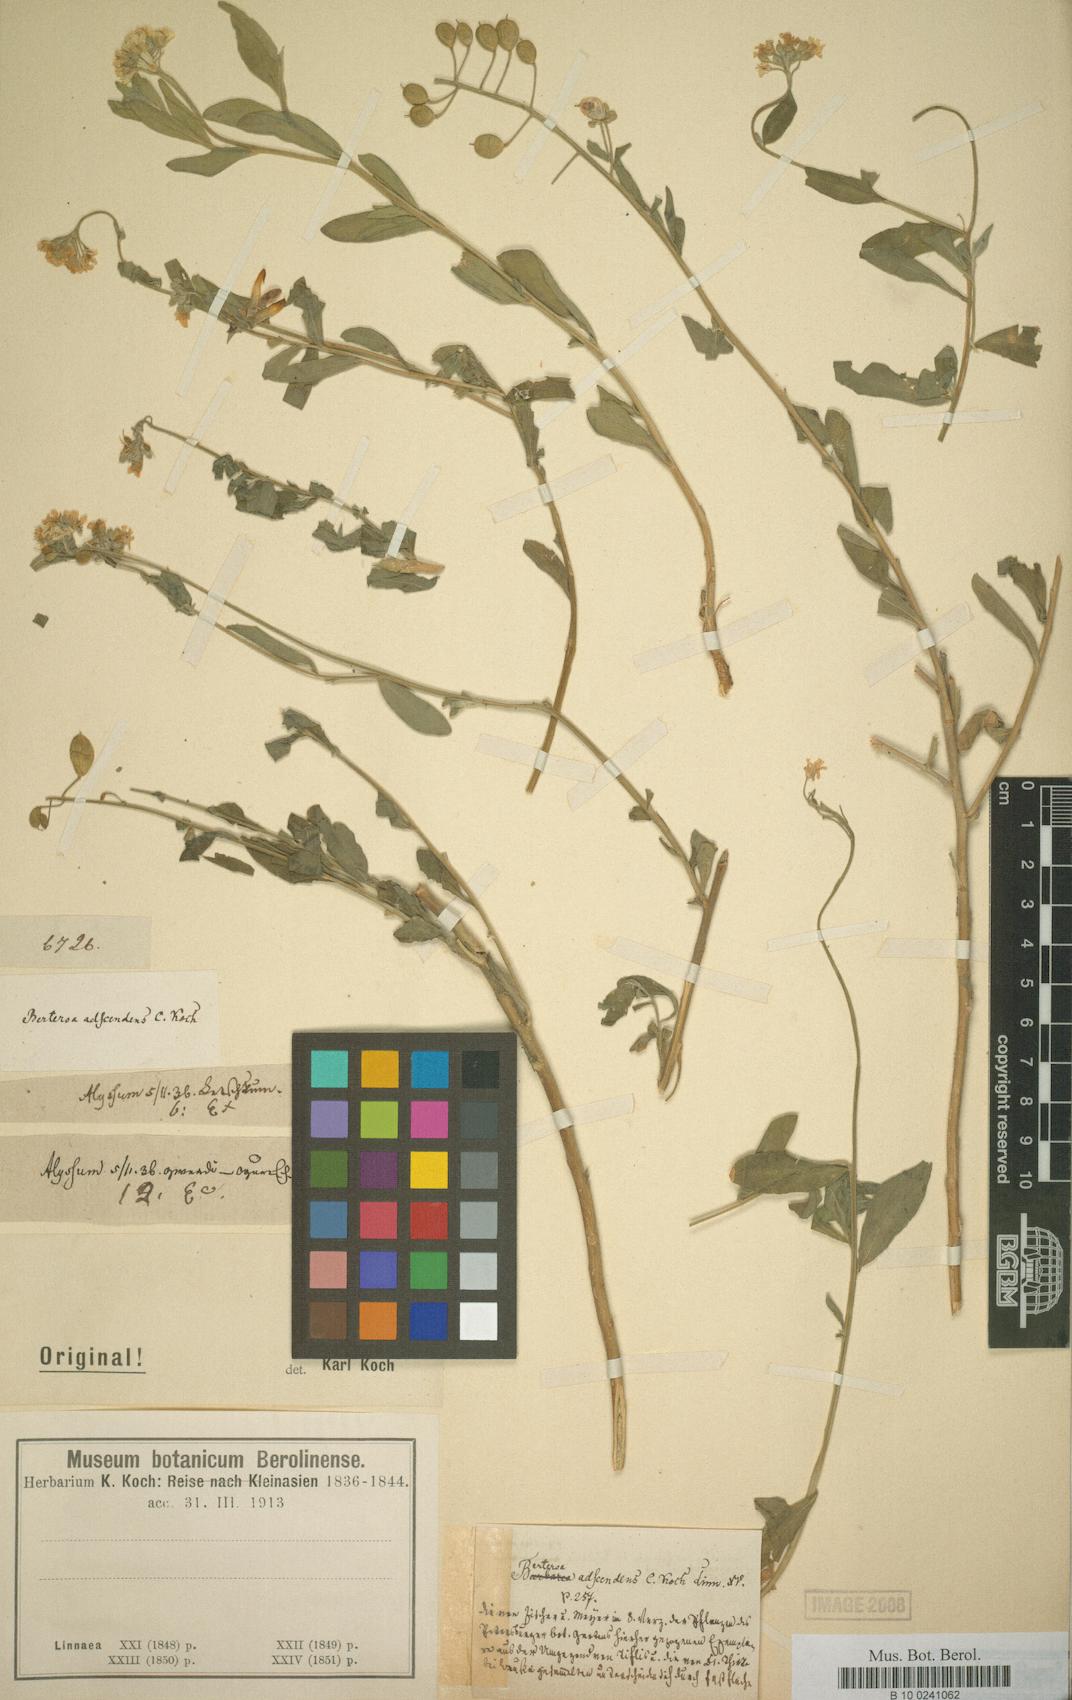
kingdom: Plantae
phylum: Tracheophyta
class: Magnoliopsida
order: Brassicales
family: Brassicaceae
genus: Berteroa
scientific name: Berteroa mutabilis
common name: Roadside false madwort
